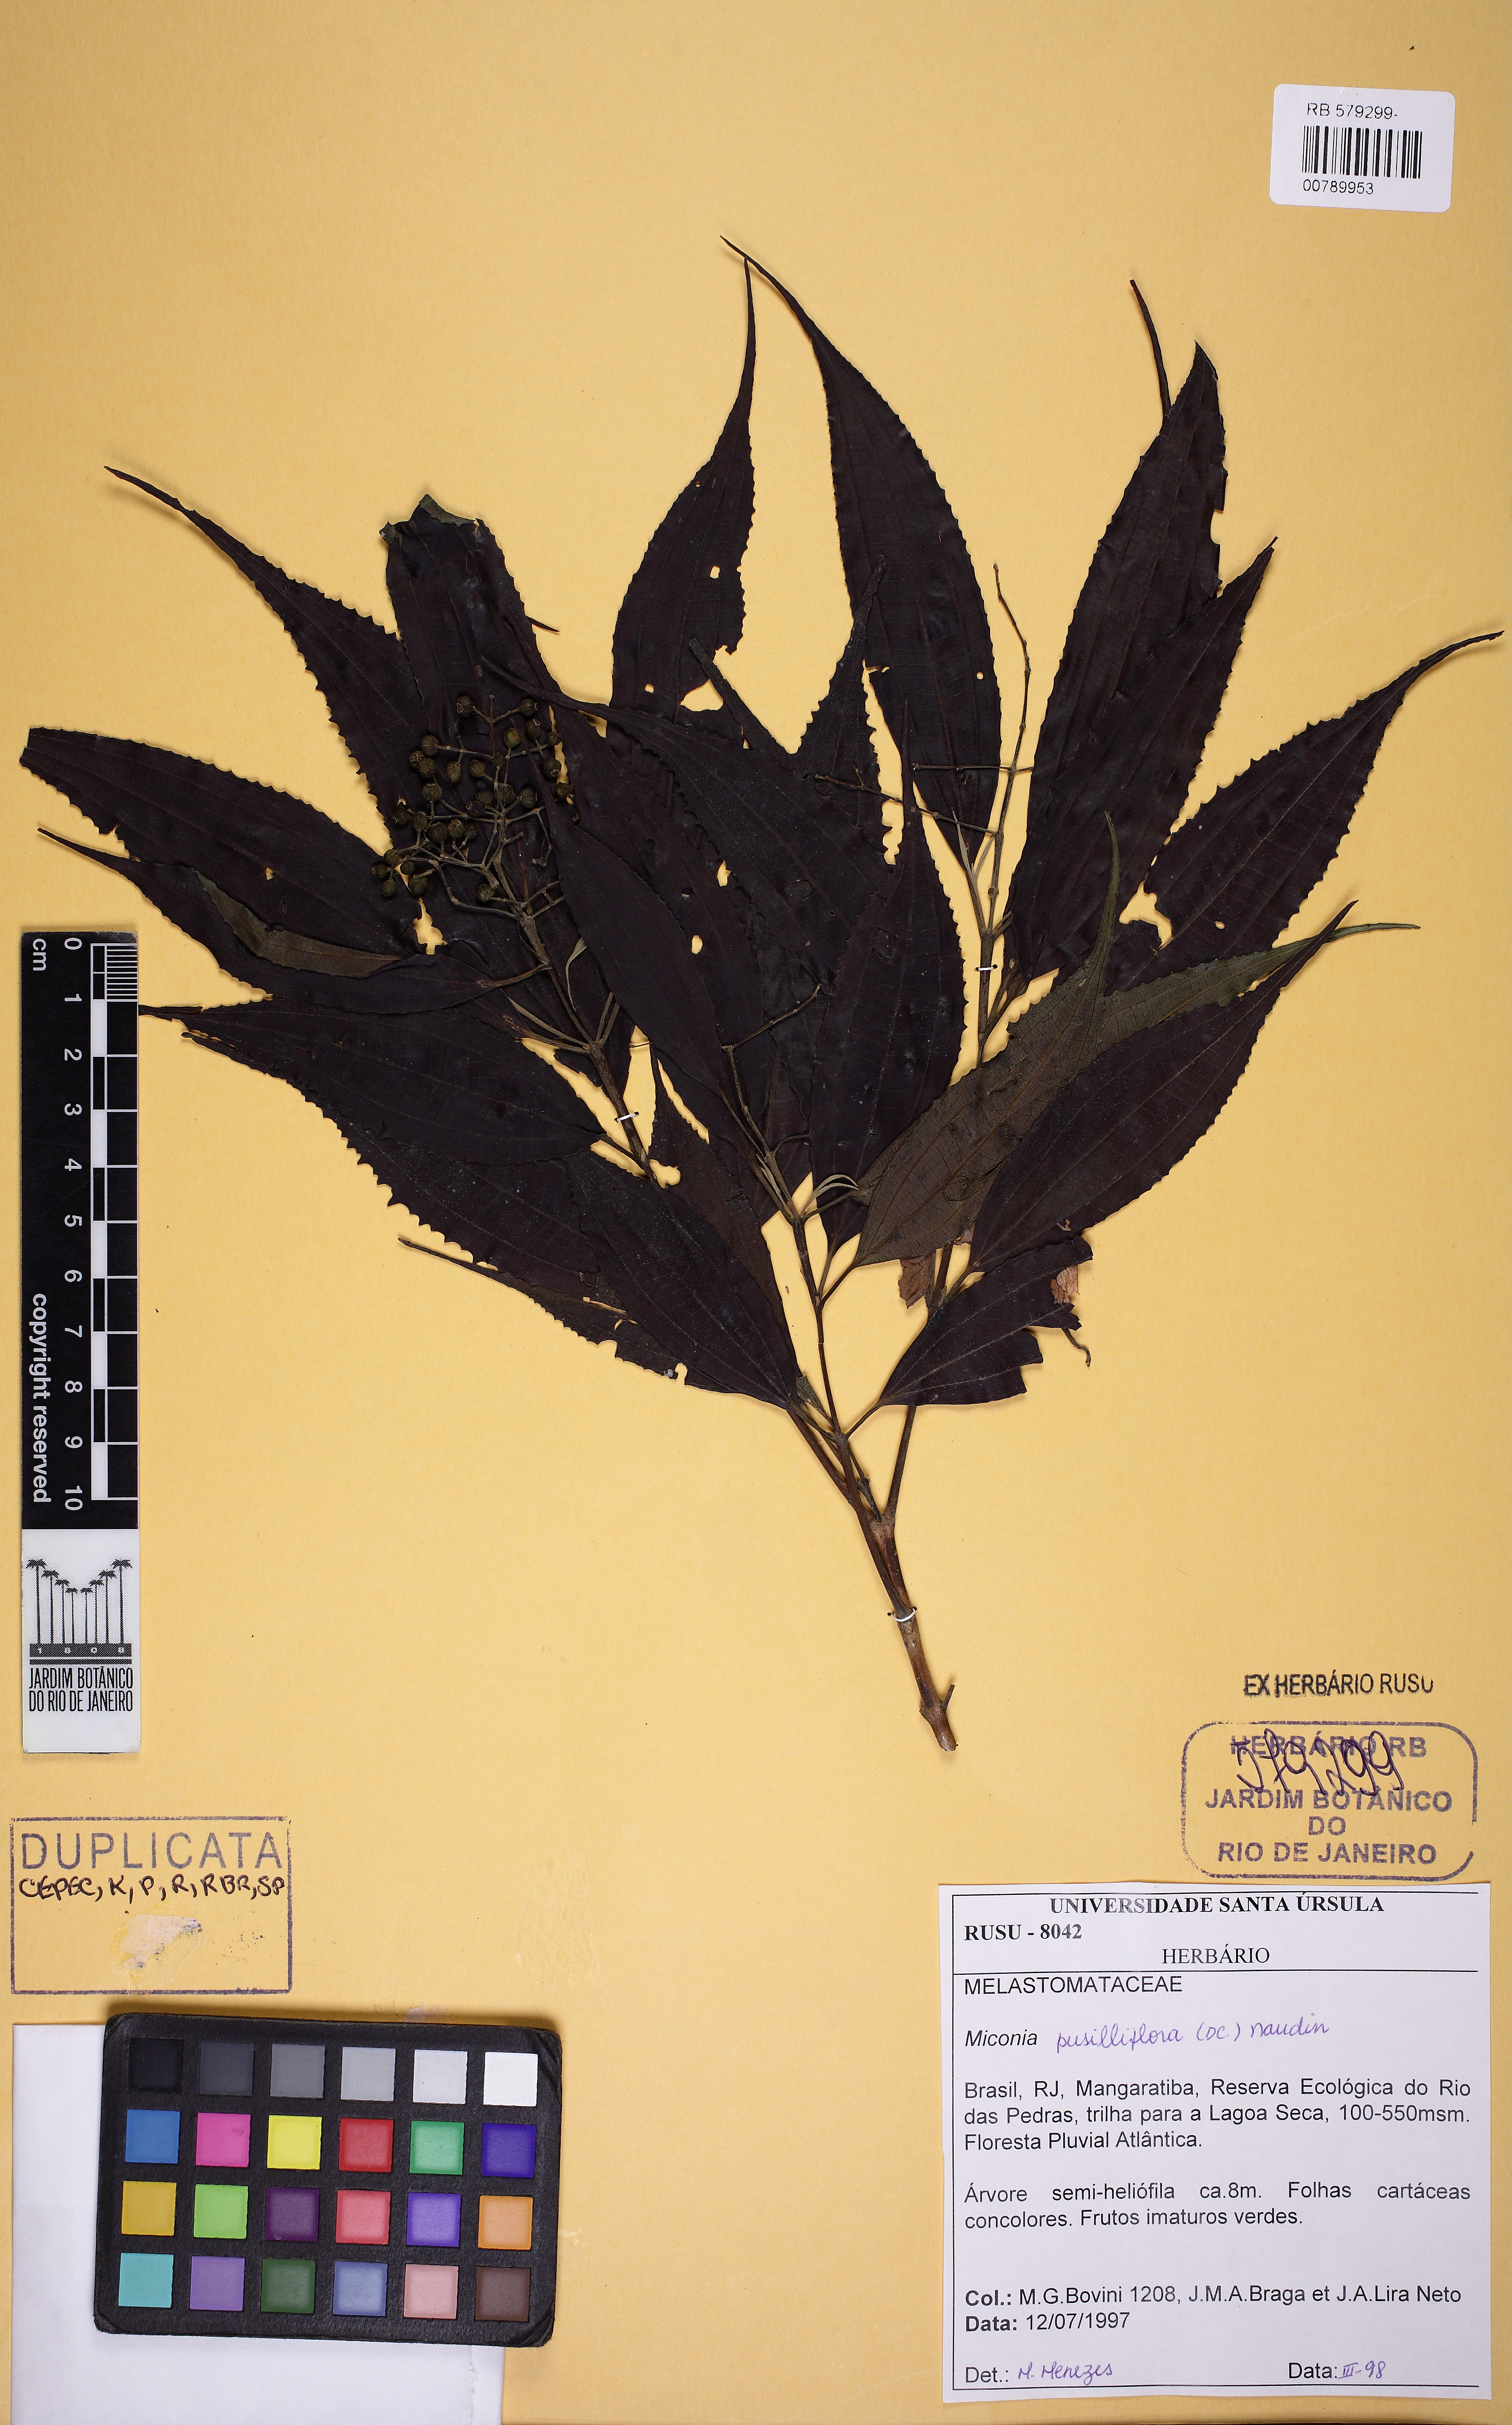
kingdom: Plantae
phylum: Tracheophyta
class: Magnoliopsida
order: Myrtales
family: Melastomataceae
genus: Miconia
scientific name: Miconia pusilliflora
